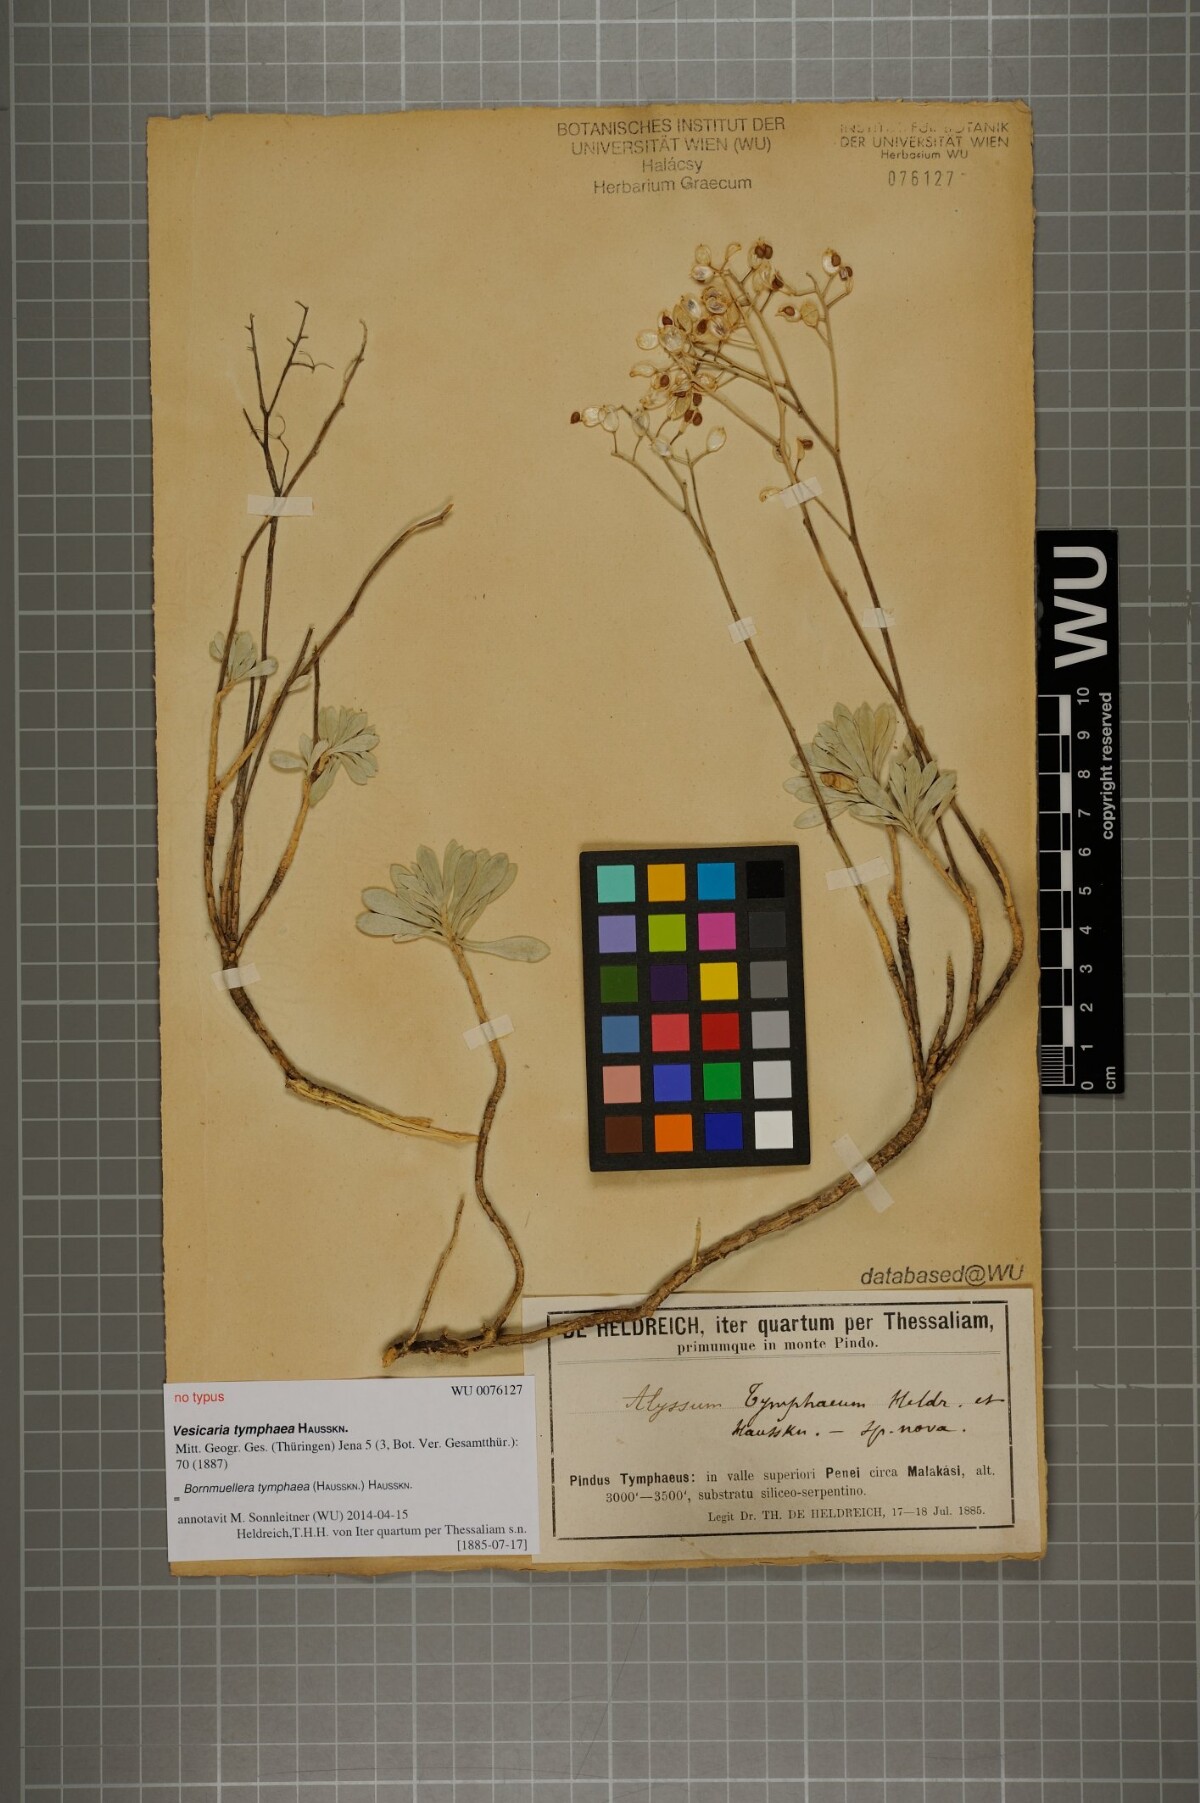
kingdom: Plantae
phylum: Tracheophyta
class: Magnoliopsida
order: Brassicales
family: Brassicaceae
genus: Bornmuellera
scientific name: Bornmuellera tymphaea
